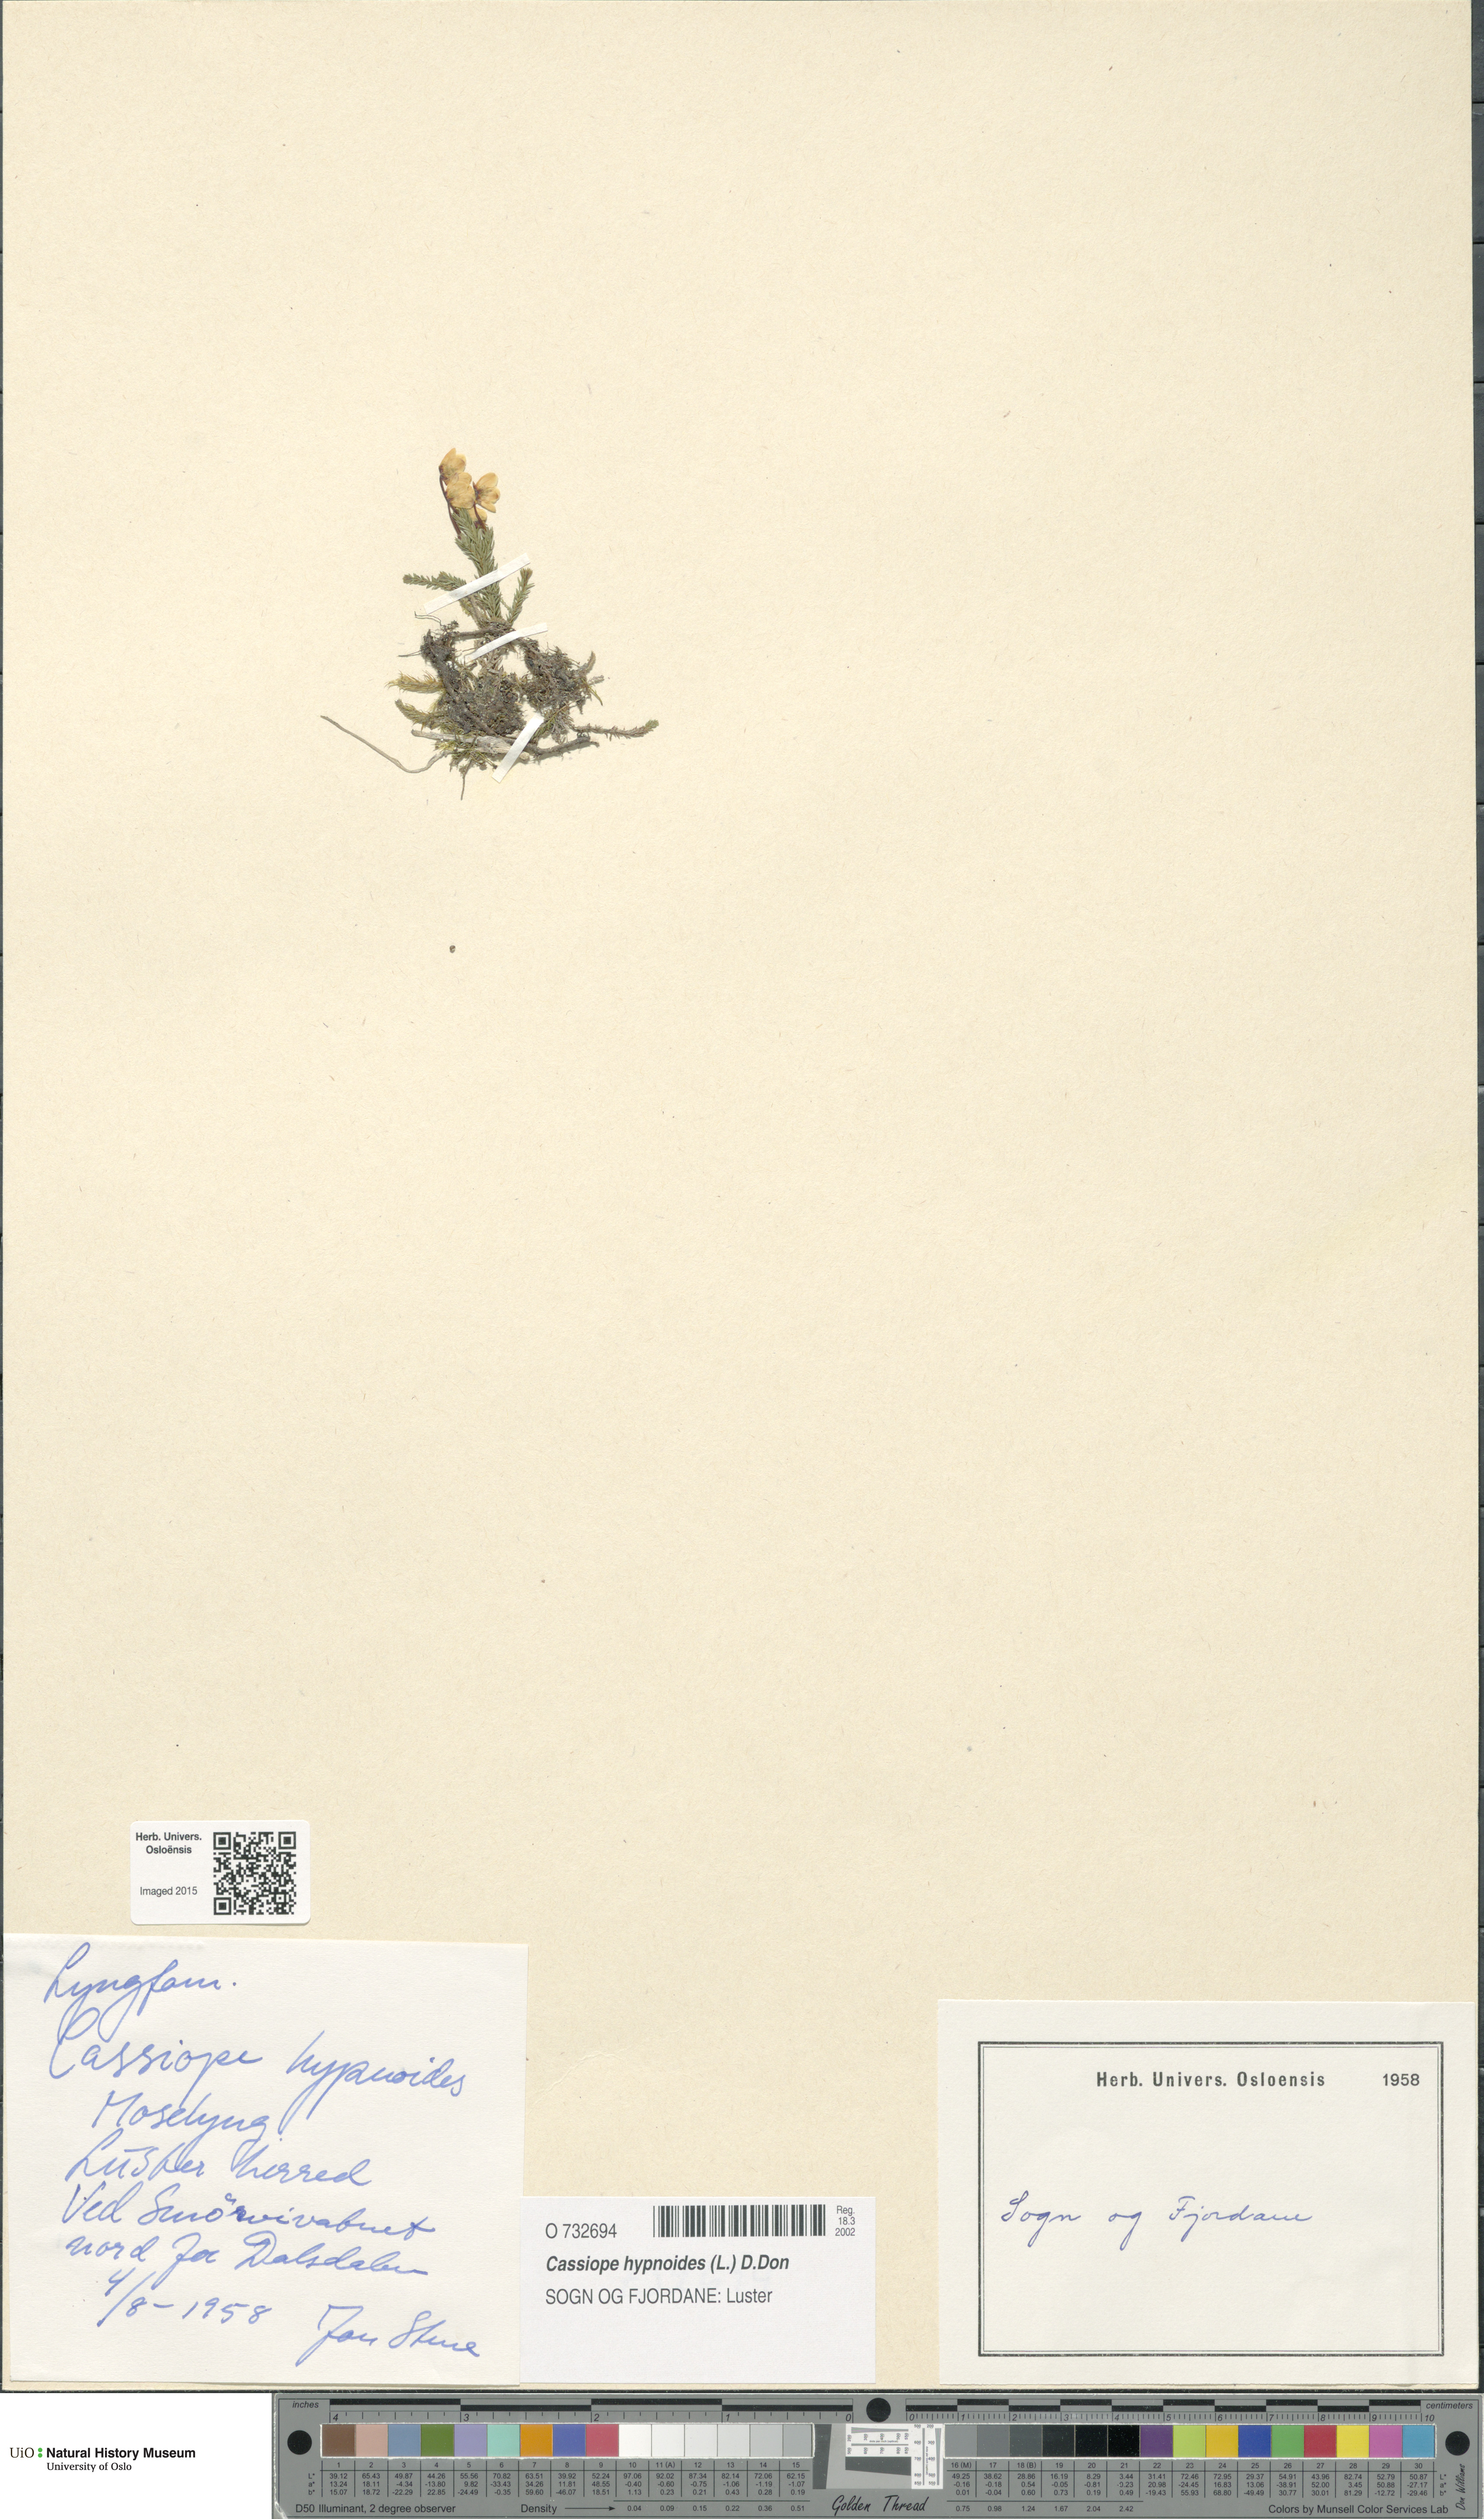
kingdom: Plantae
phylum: Tracheophyta
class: Magnoliopsida
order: Ericales
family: Ericaceae
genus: Harrimanella
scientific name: Harrimanella hypnoides
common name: Moss bell heather
